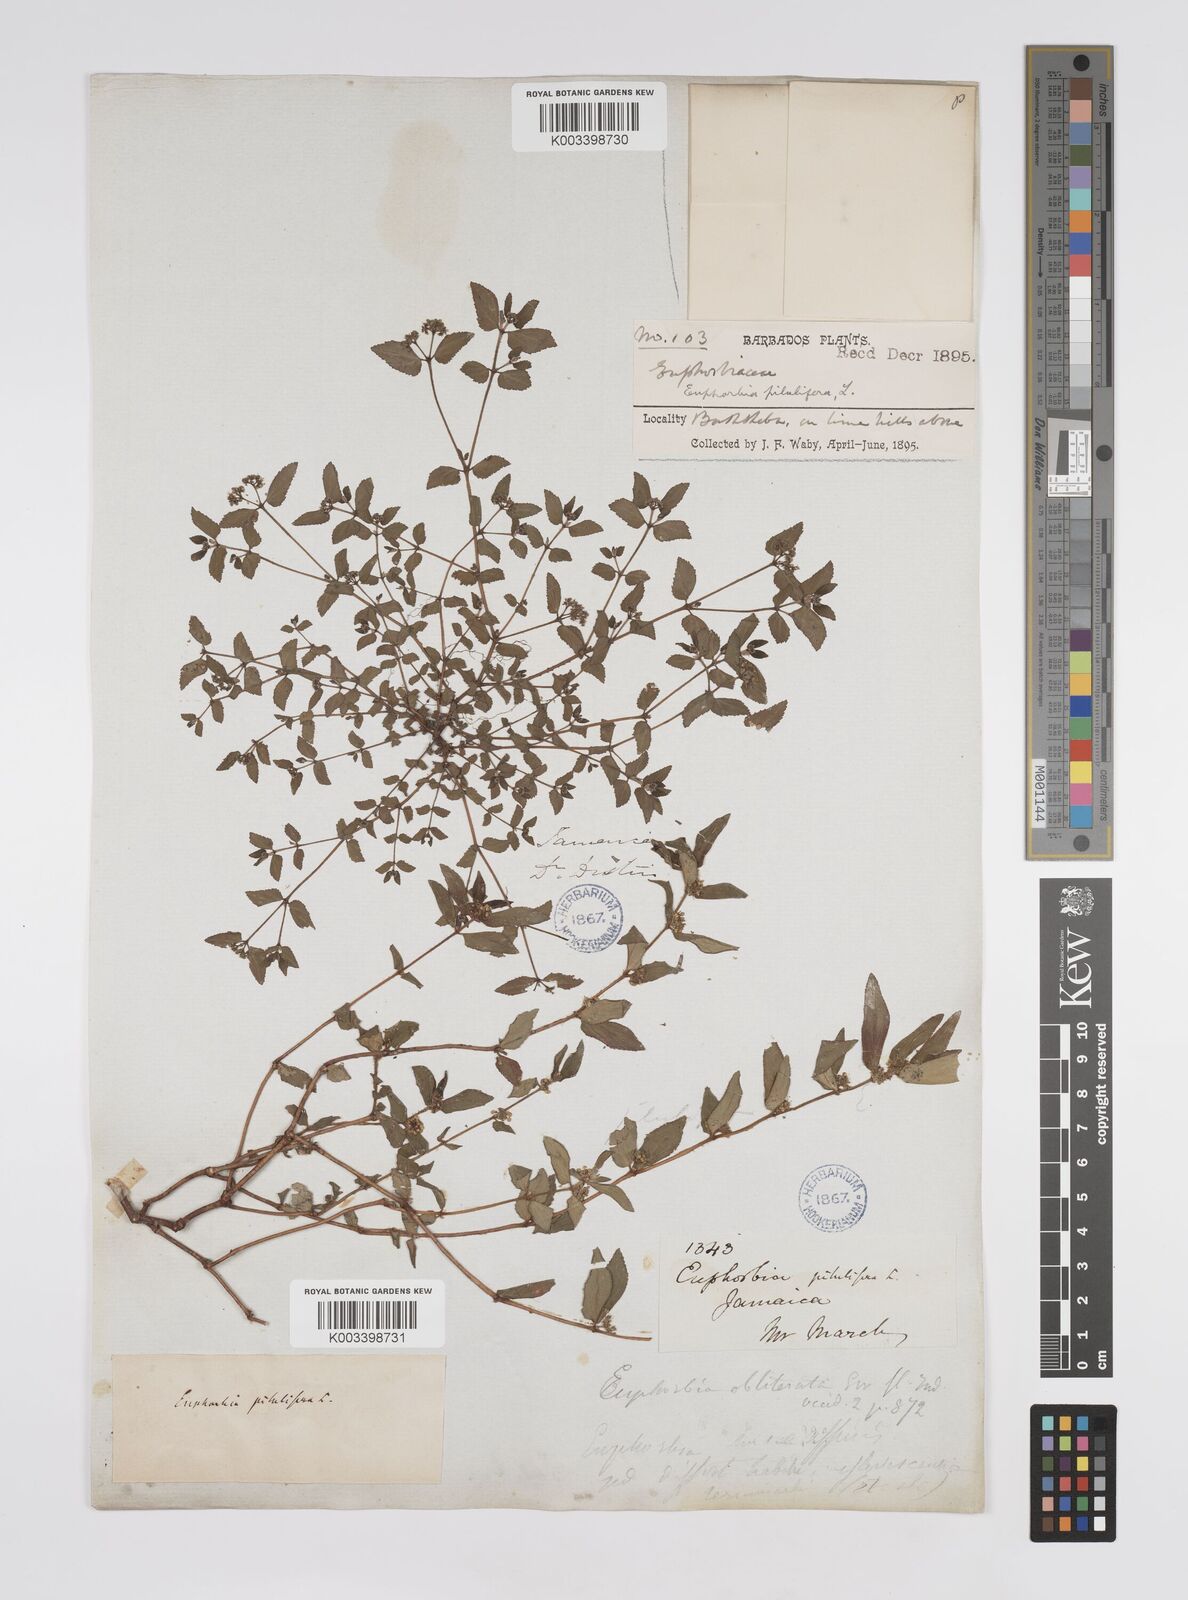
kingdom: Plantae
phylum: Tracheophyta
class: Magnoliopsida
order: Malpighiales
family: Euphorbiaceae
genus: Euphorbia
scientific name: Euphorbia hirta
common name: Pillpod sandmat
